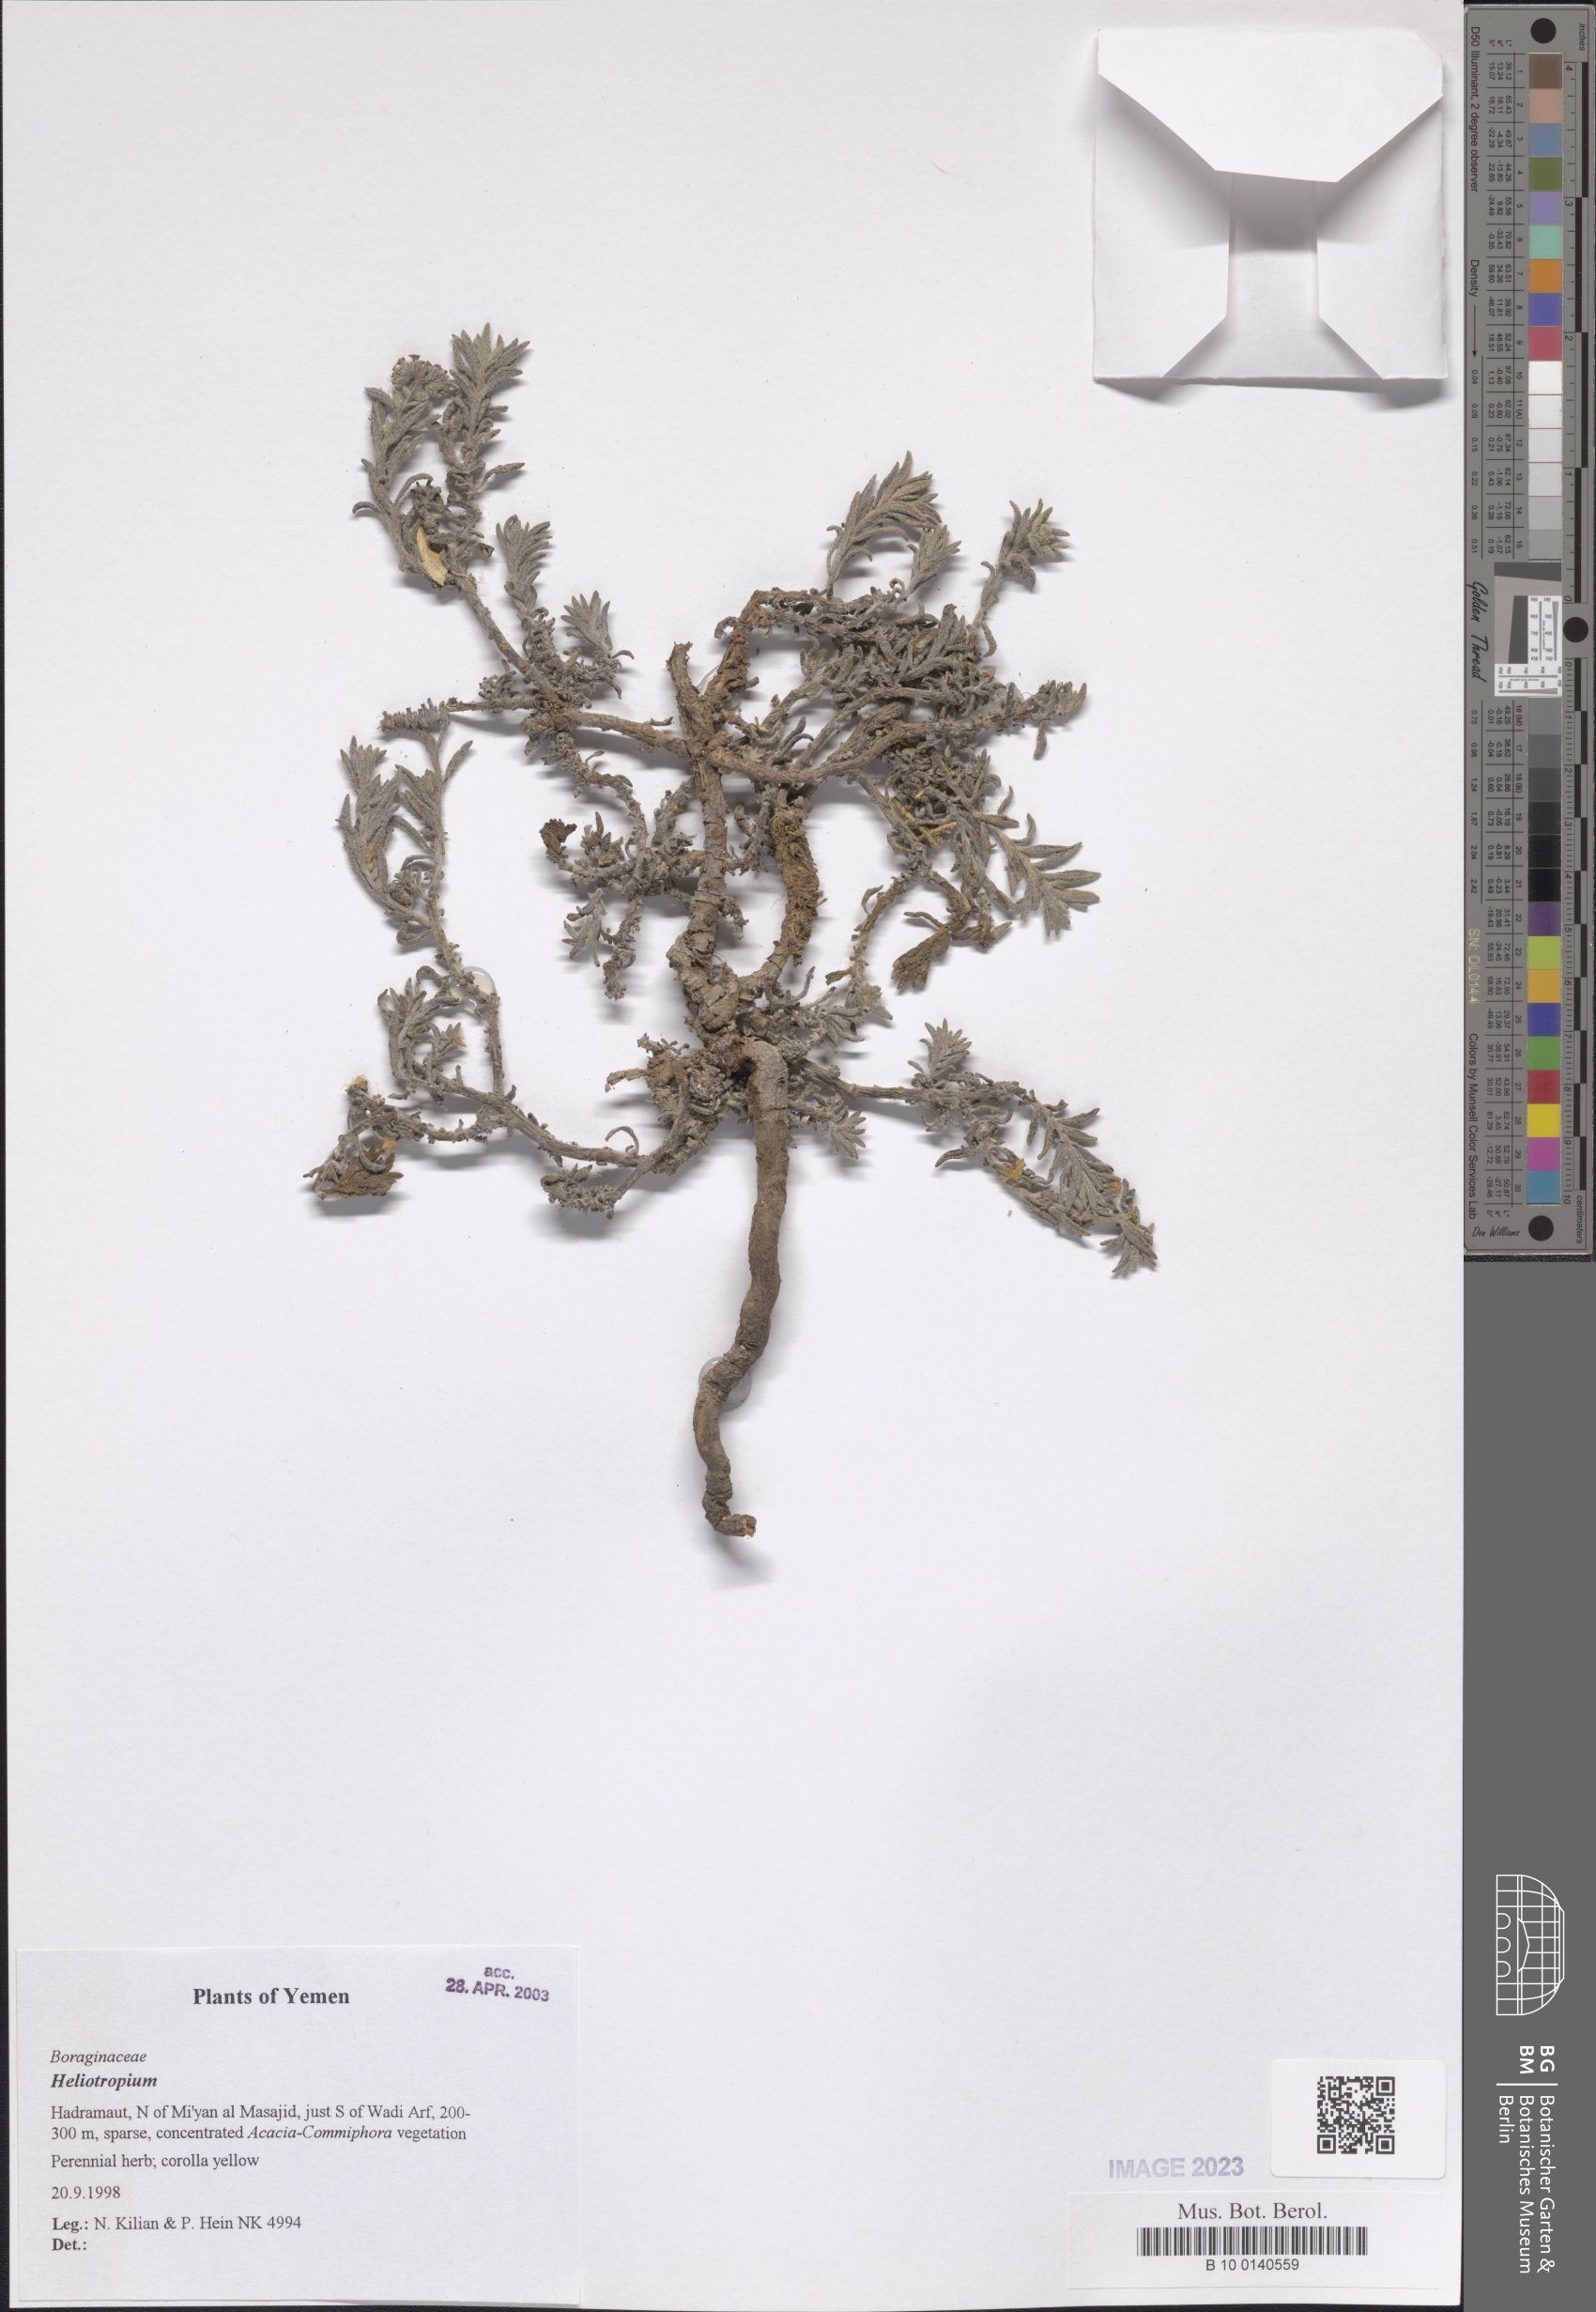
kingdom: Plantae
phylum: Tracheophyta
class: Magnoliopsida
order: Boraginales
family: Heliotropiaceae
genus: Heliotropium
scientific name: Heliotropium
